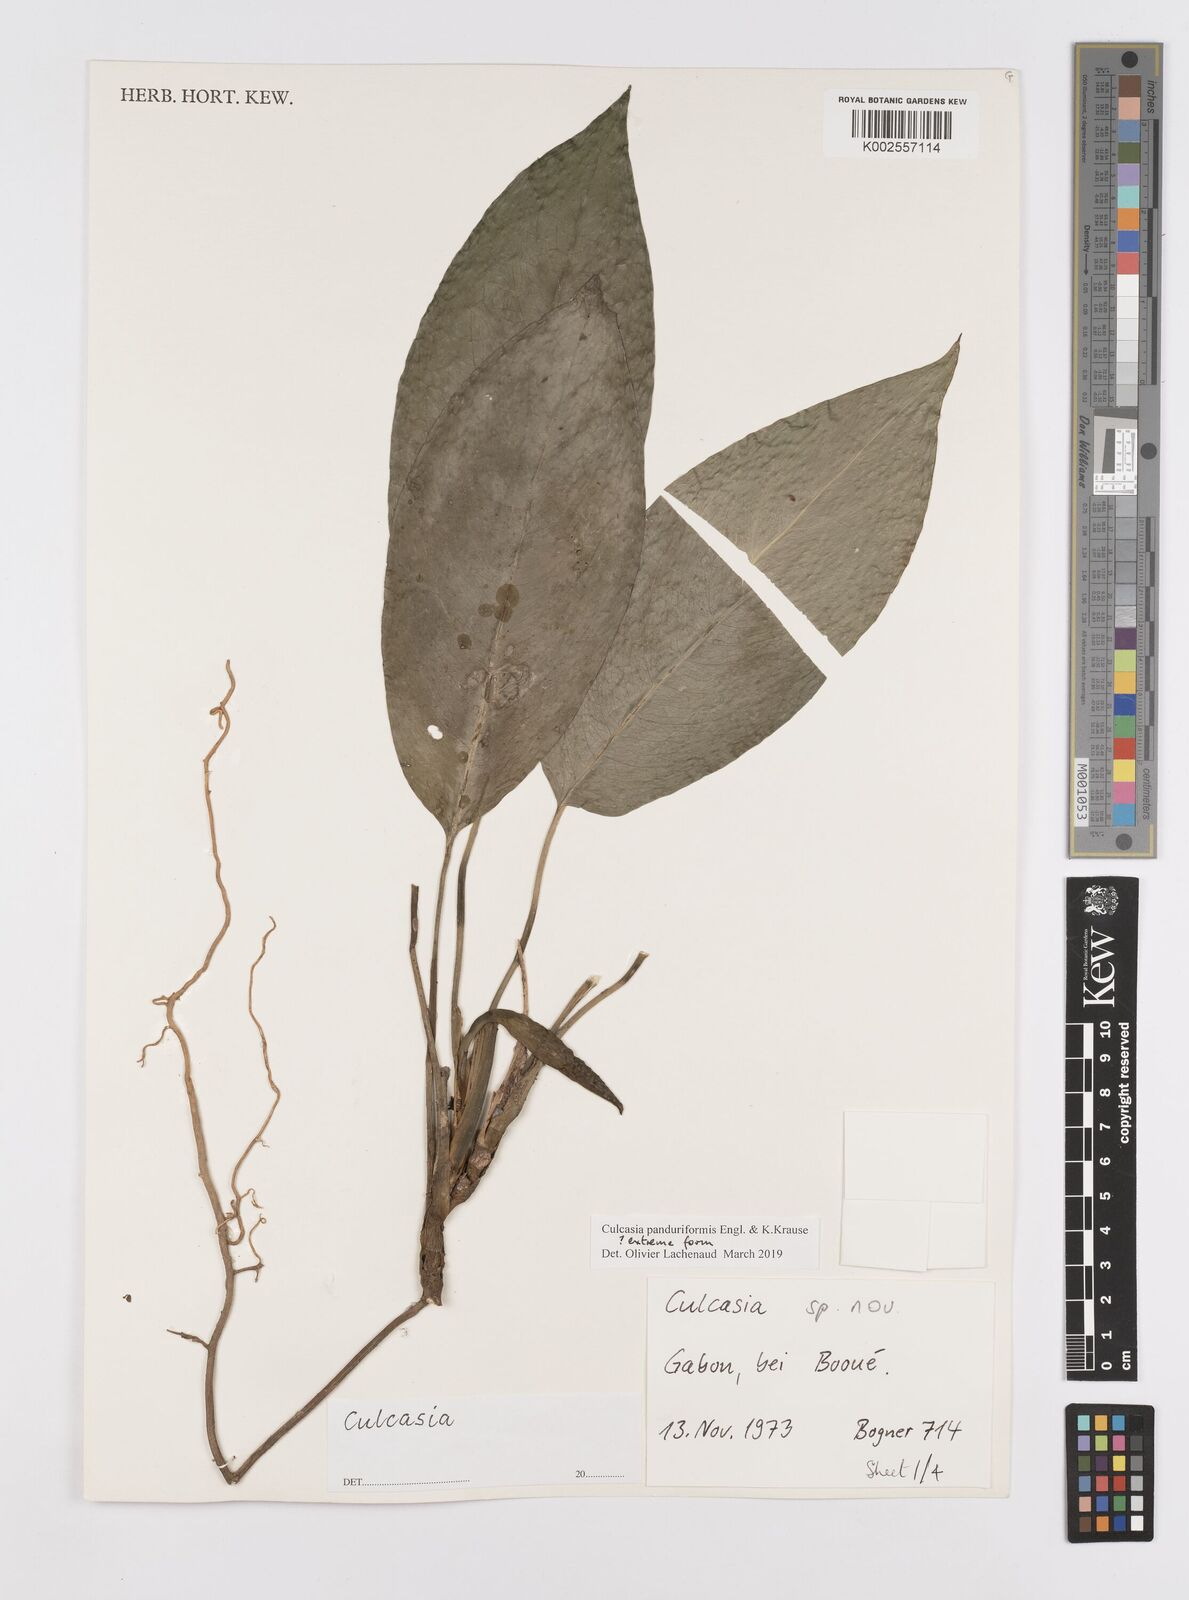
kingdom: Plantae
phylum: Tracheophyta
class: Liliopsida
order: Alismatales
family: Araceae
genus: Culcasia
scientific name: Culcasia panduriformis
